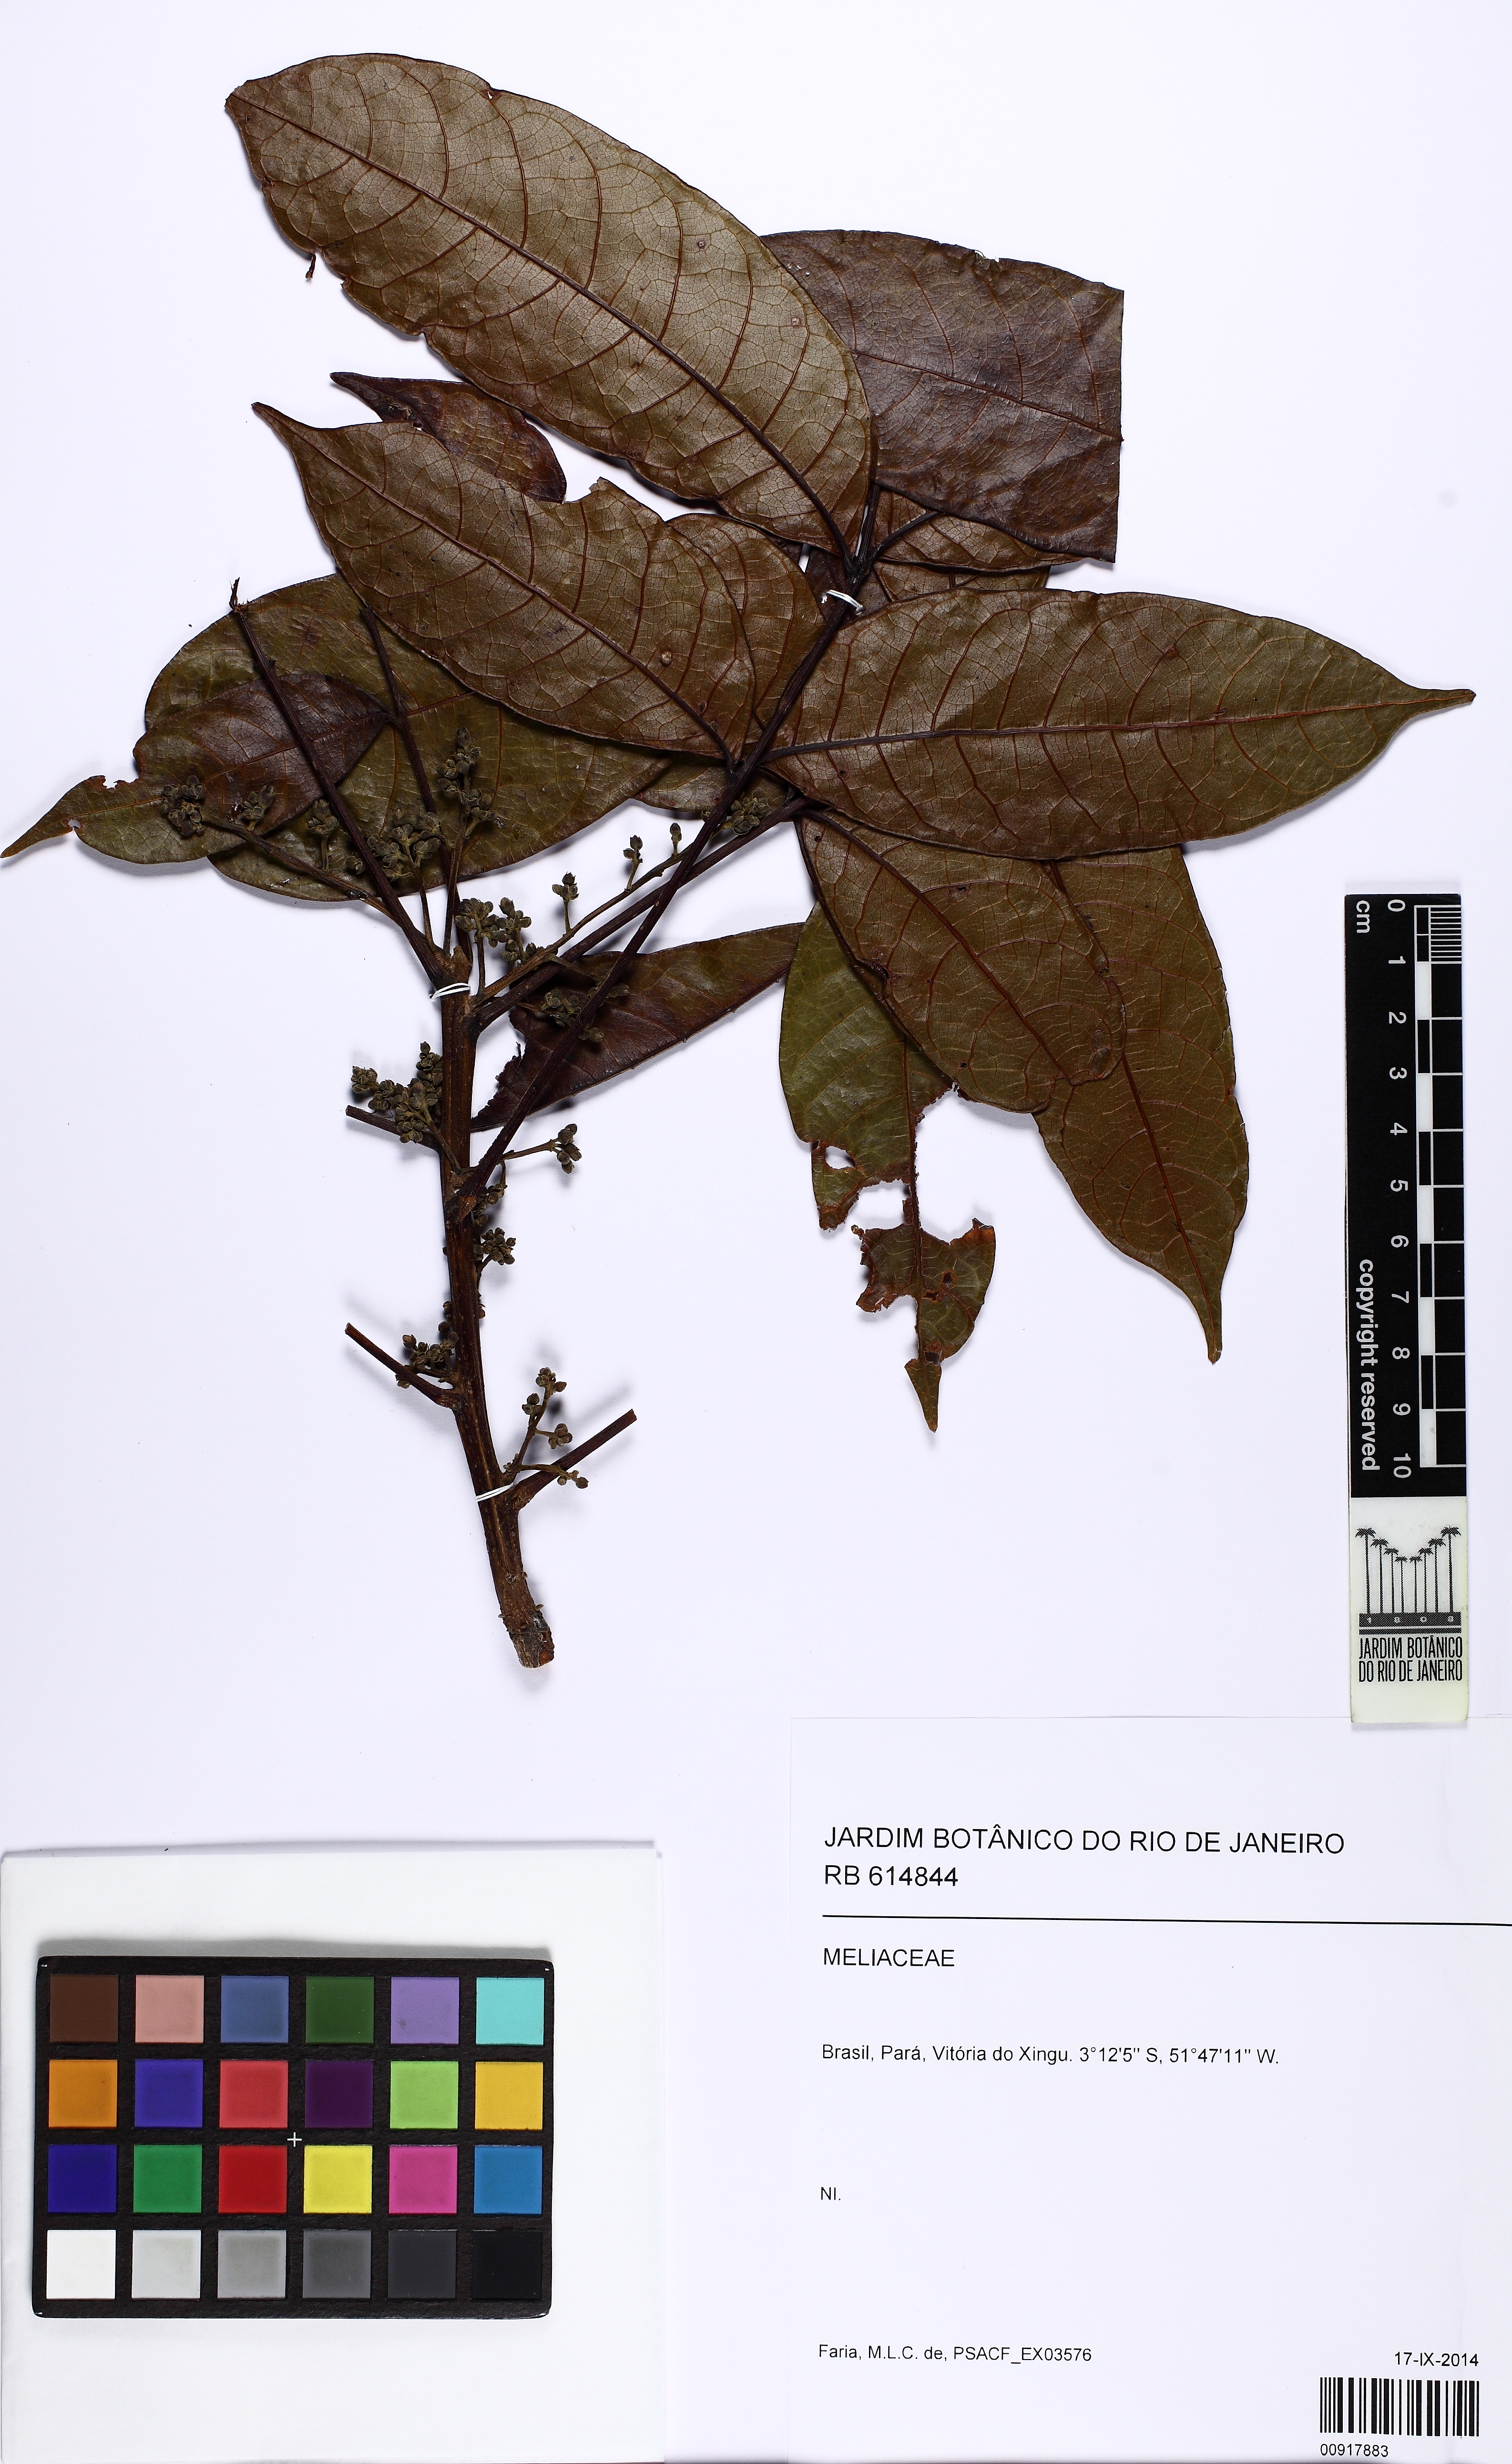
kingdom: Plantae
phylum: Tracheophyta
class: Magnoliopsida
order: Sapindales
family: Meliaceae
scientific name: Meliaceae
